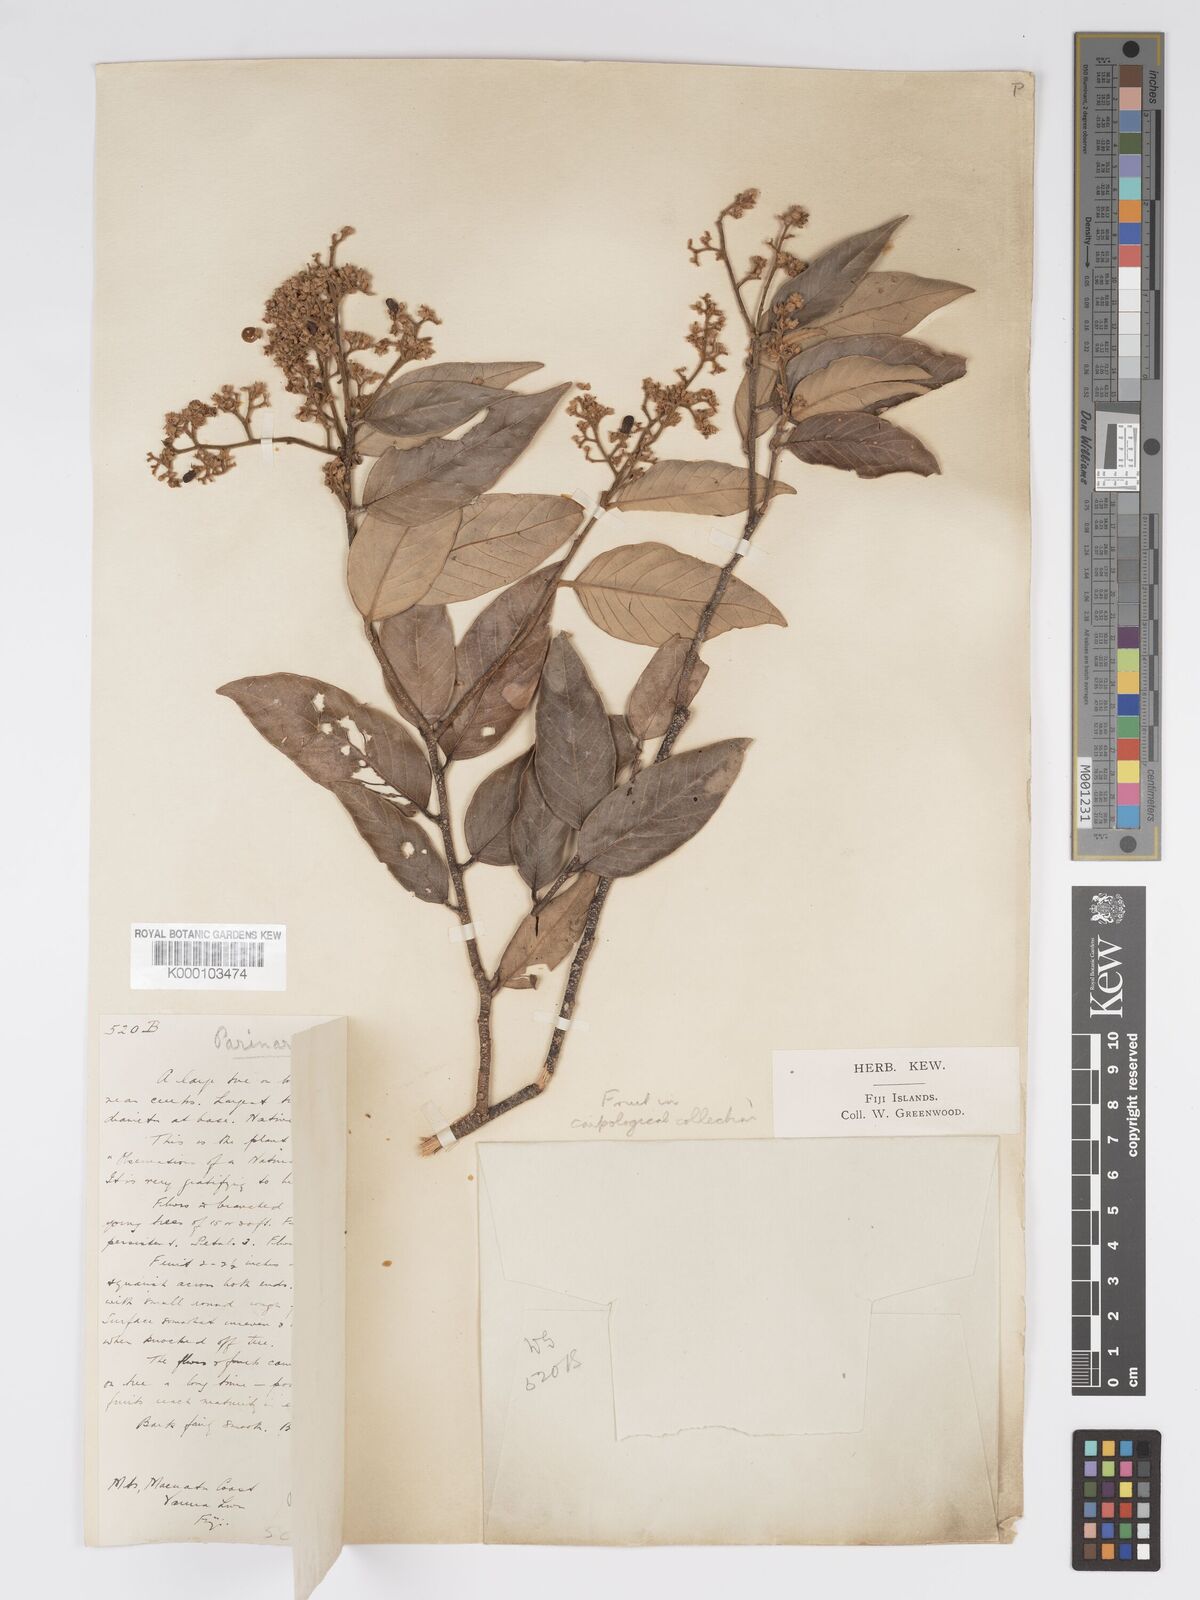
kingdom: Plantae
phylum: Tracheophyta
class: Magnoliopsida
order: Malpighiales
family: Chrysobalanaceae
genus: Parinari
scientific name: Parinari insularum
